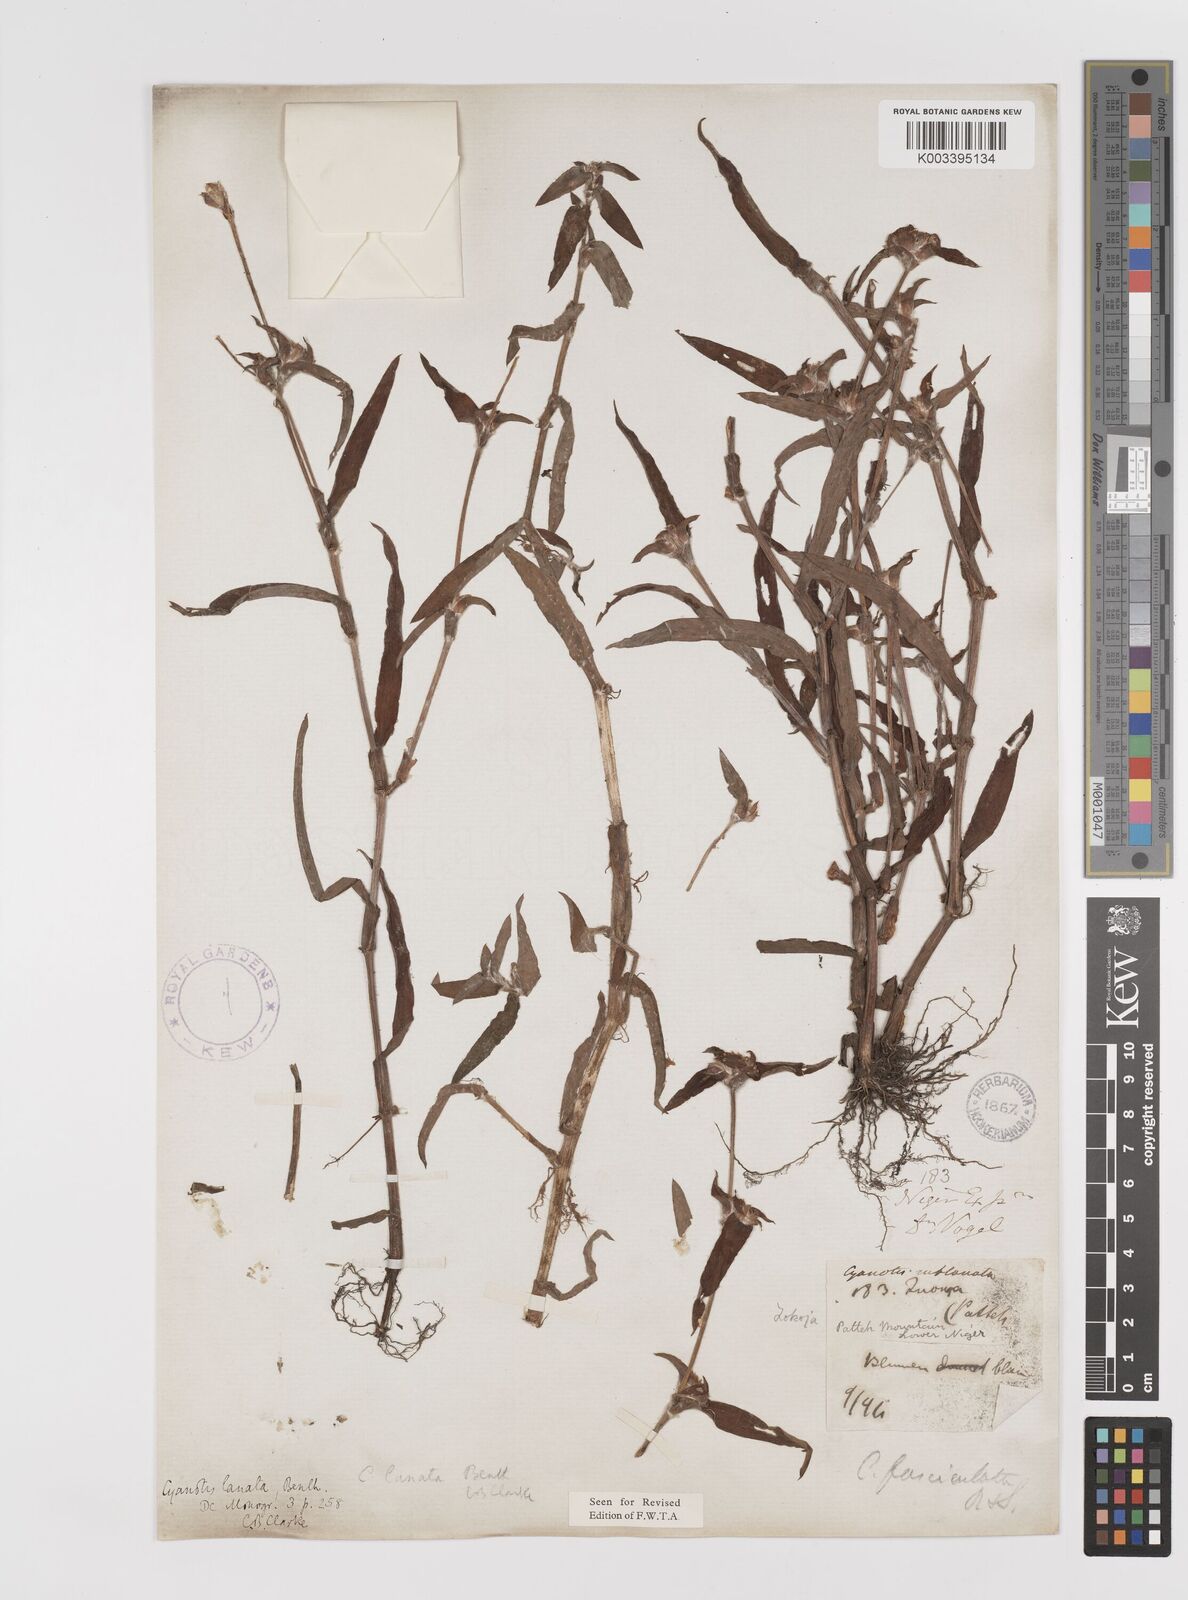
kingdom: Plantae
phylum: Tracheophyta
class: Liliopsida
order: Commelinales
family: Commelinaceae
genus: Cyanotis
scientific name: Cyanotis lanata
